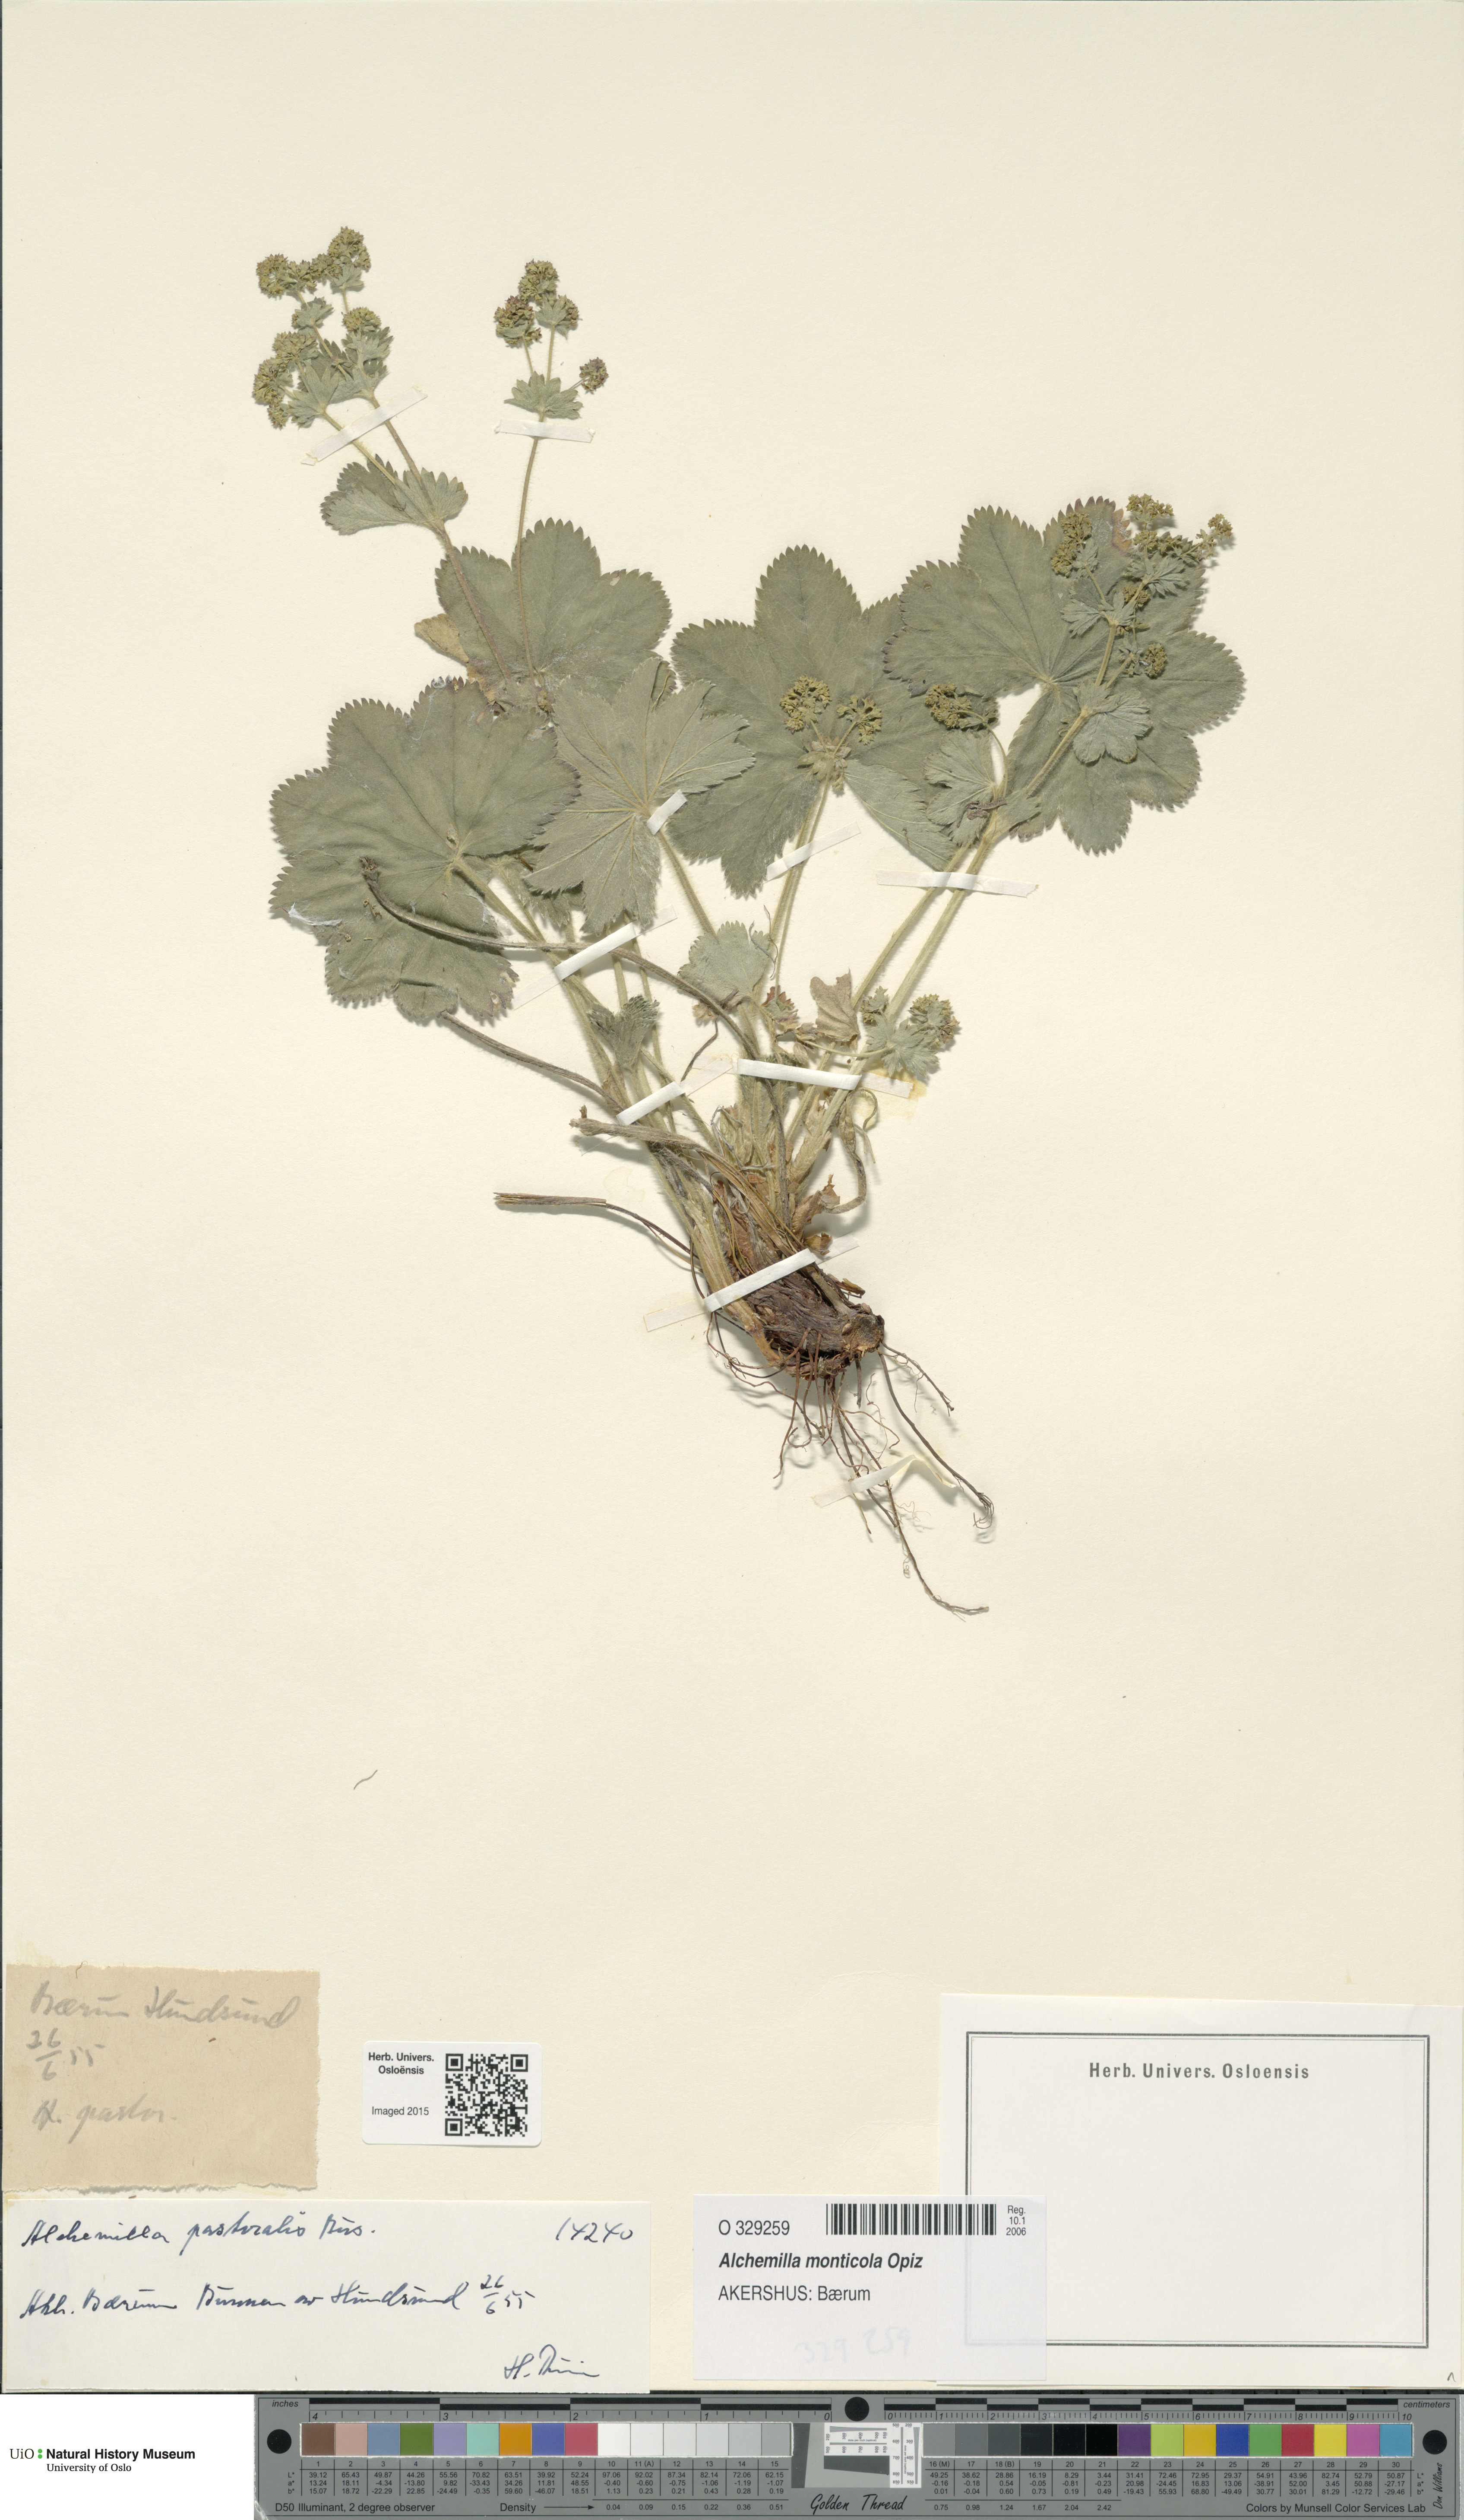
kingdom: Plantae
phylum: Tracheophyta
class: Magnoliopsida
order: Rosales
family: Rosaceae
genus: Alchemilla
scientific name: Alchemilla monticola
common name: Hairy lady's mantle
